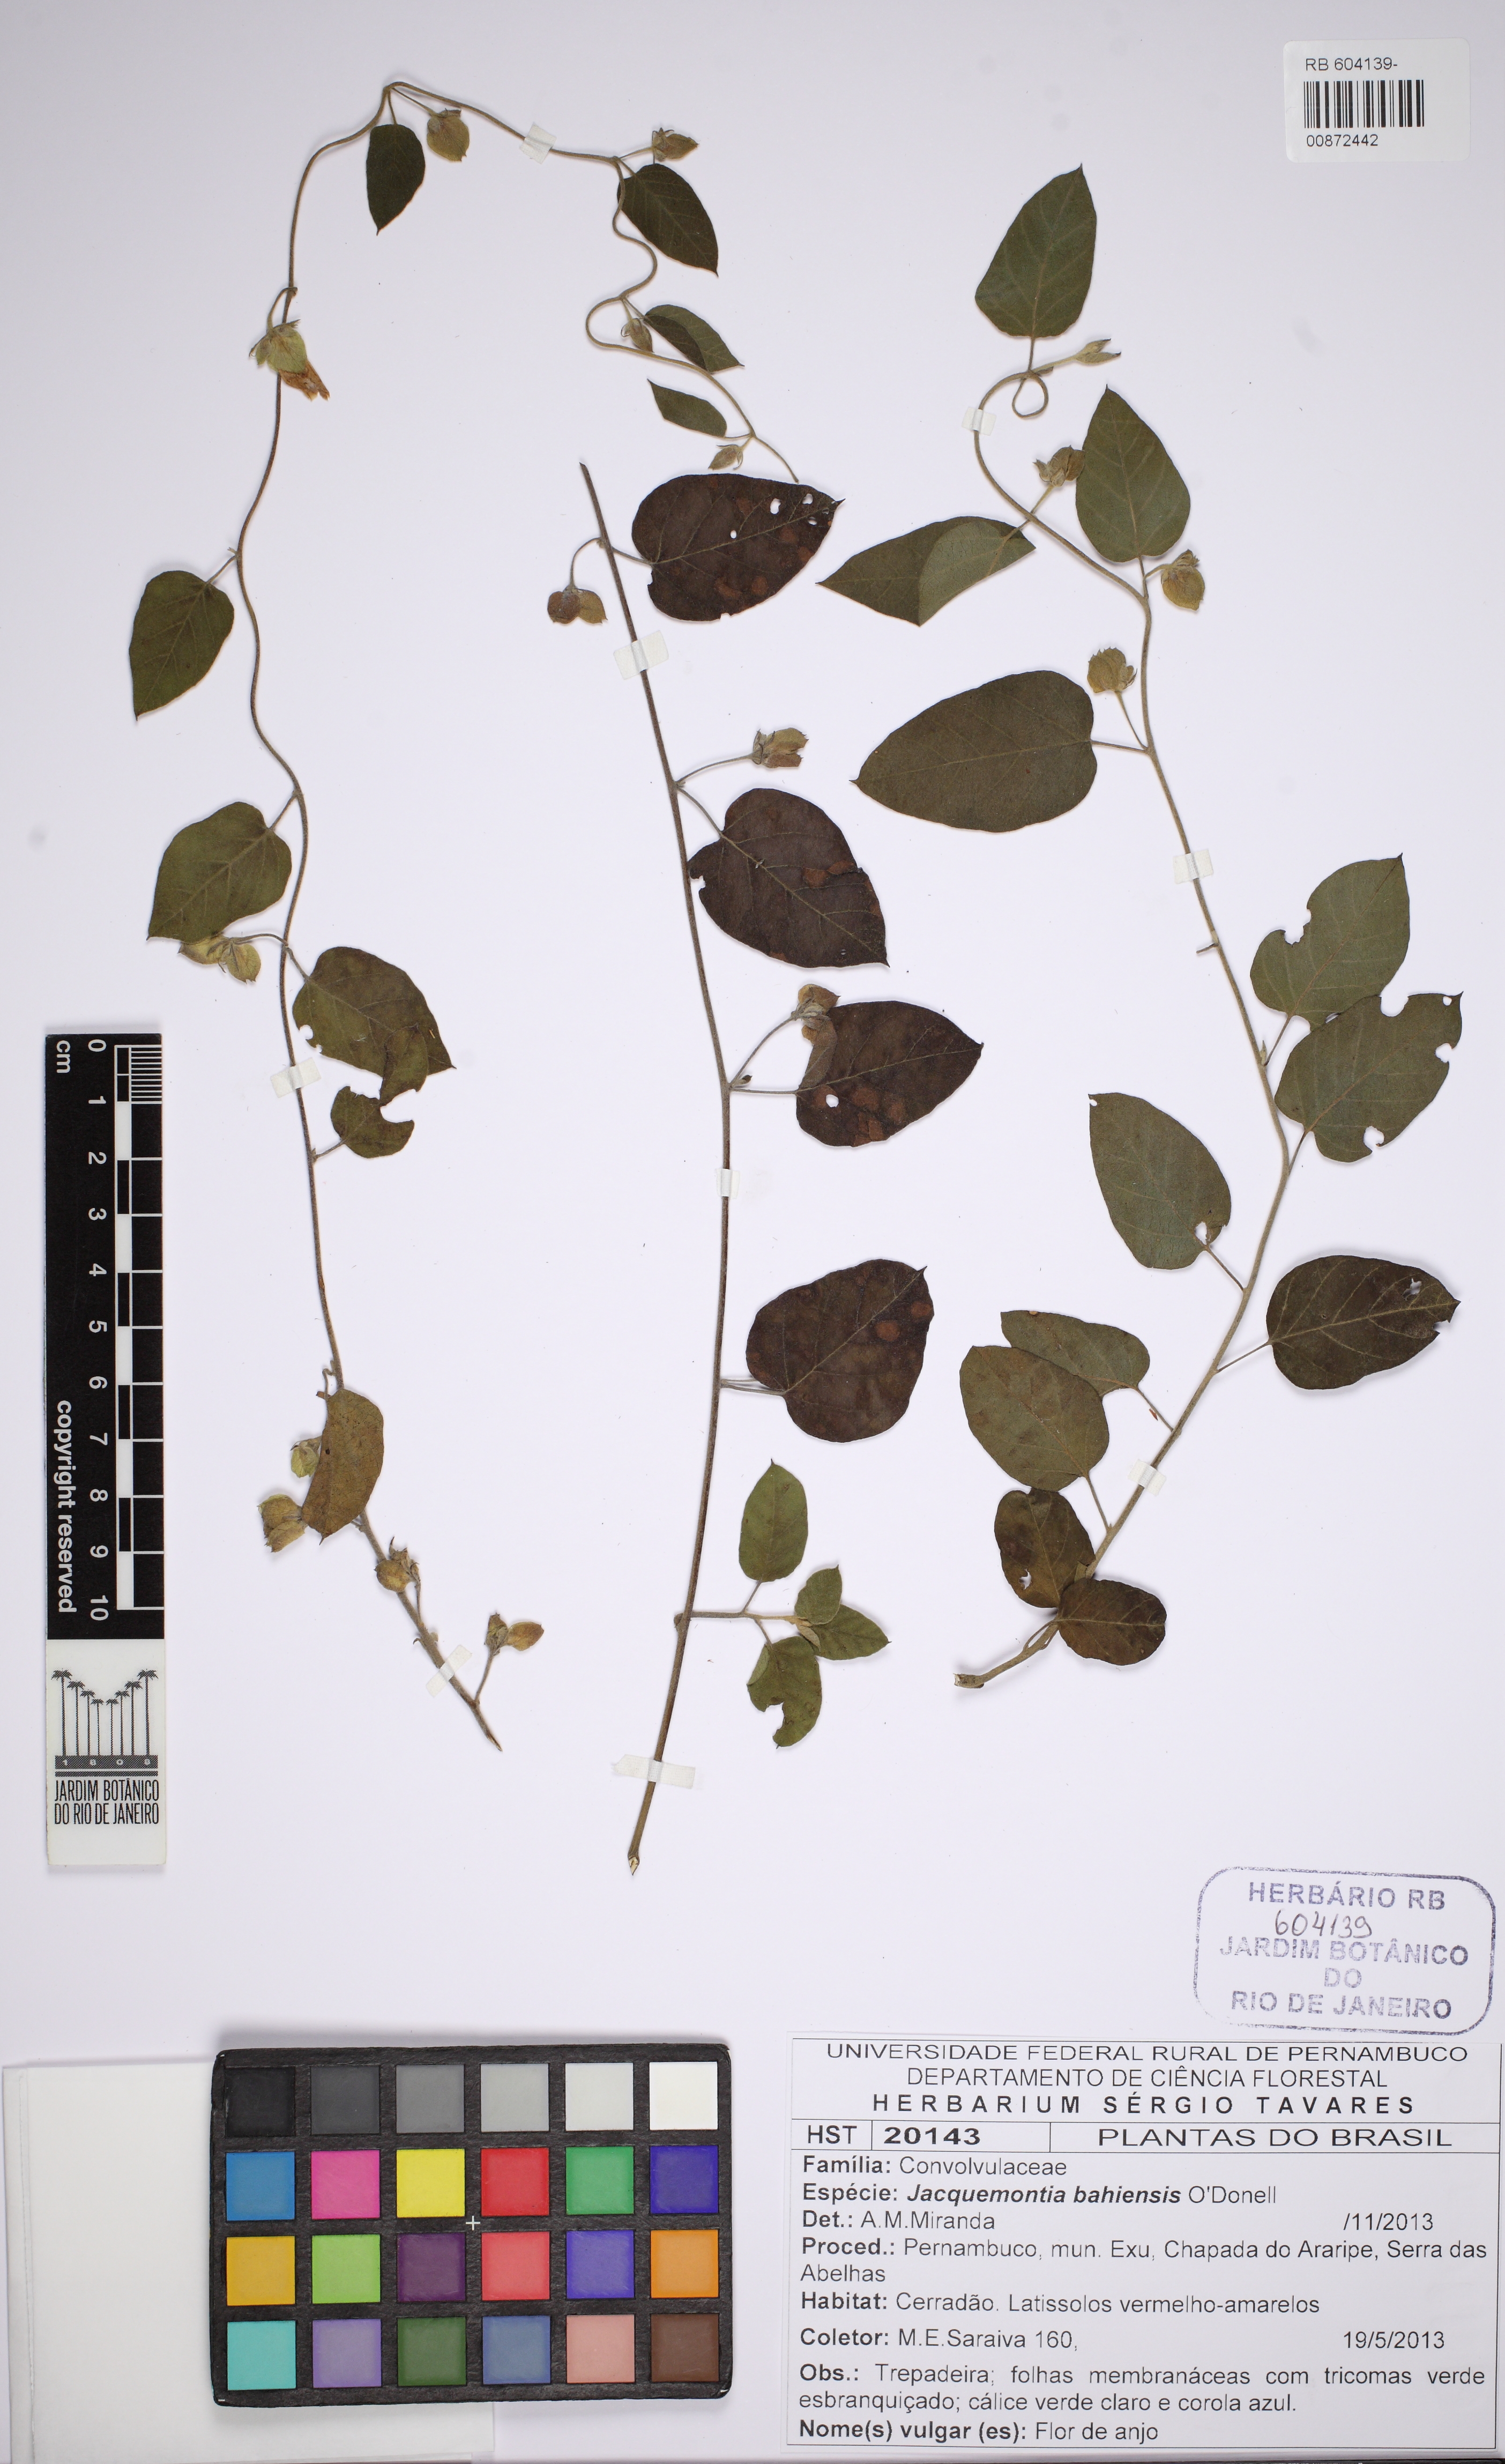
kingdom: Plantae
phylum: Tracheophyta
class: Magnoliopsida
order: Solanales
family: Convolvulaceae
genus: Jacquemontia
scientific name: Jacquemontia bahiensis
